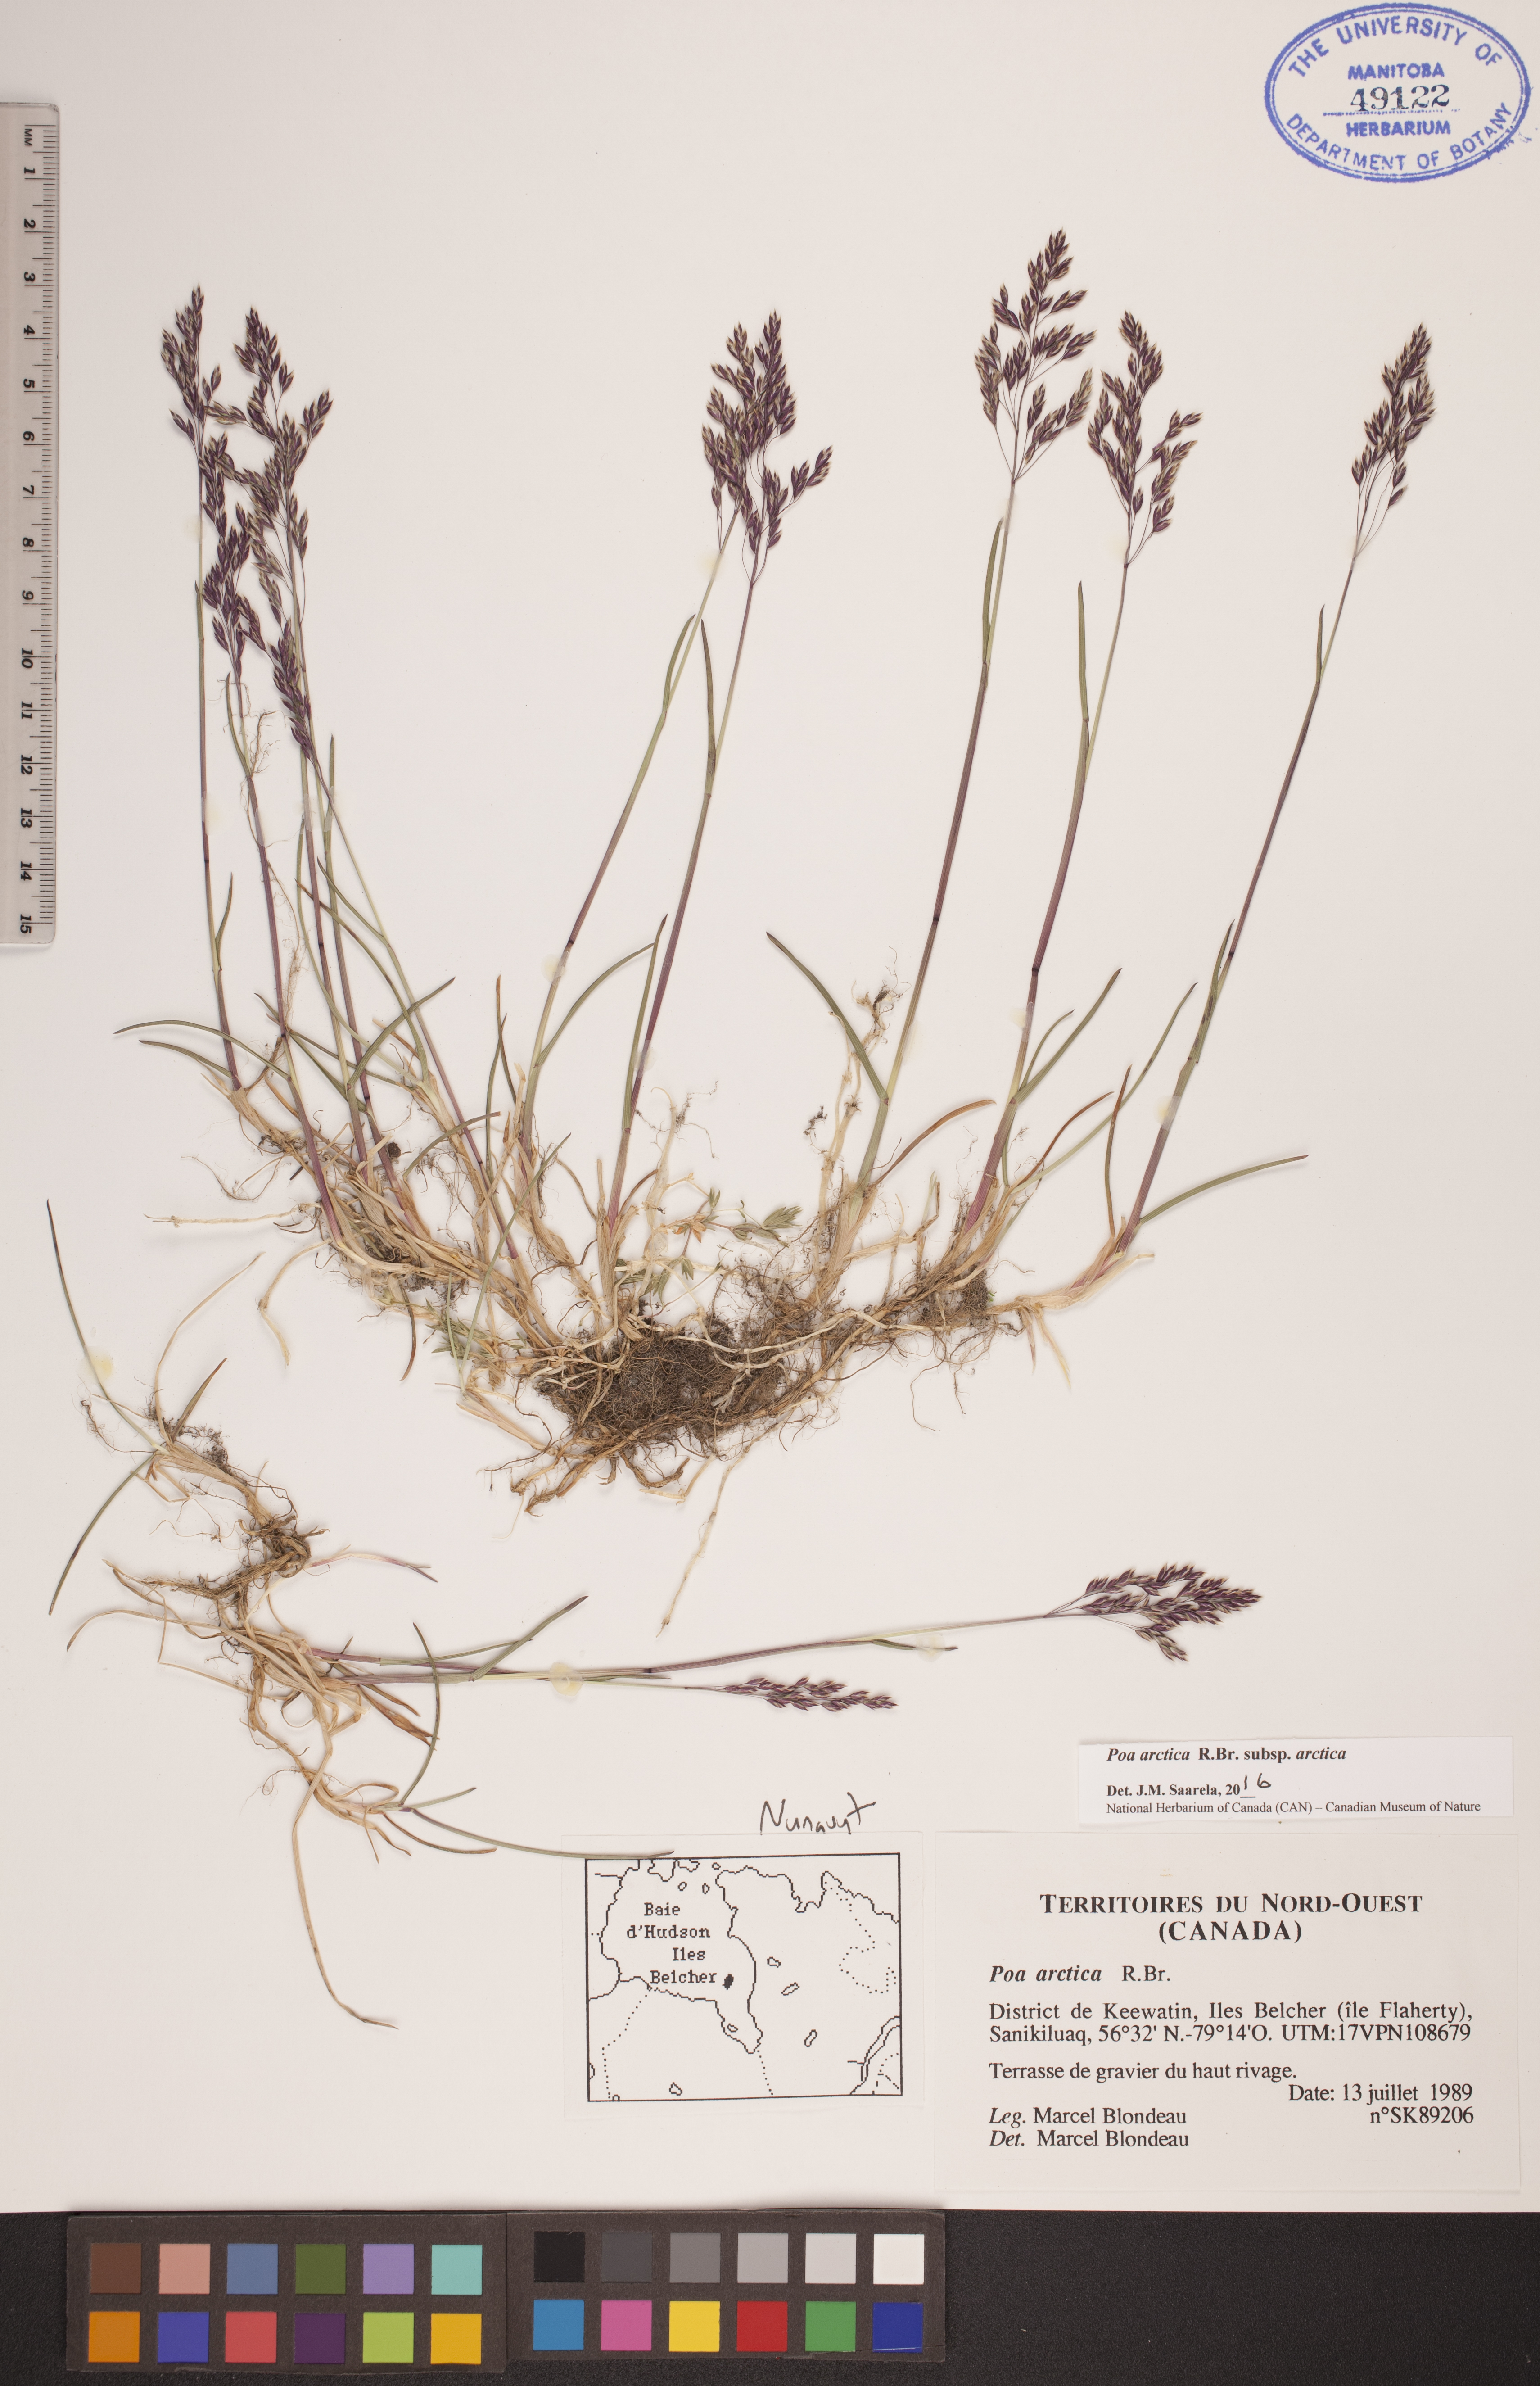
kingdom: Plantae
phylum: Tracheophyta
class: Liliopsida
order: Poales
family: Poaceae
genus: Poa
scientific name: Poa arctica
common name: Arctic bluegrass
